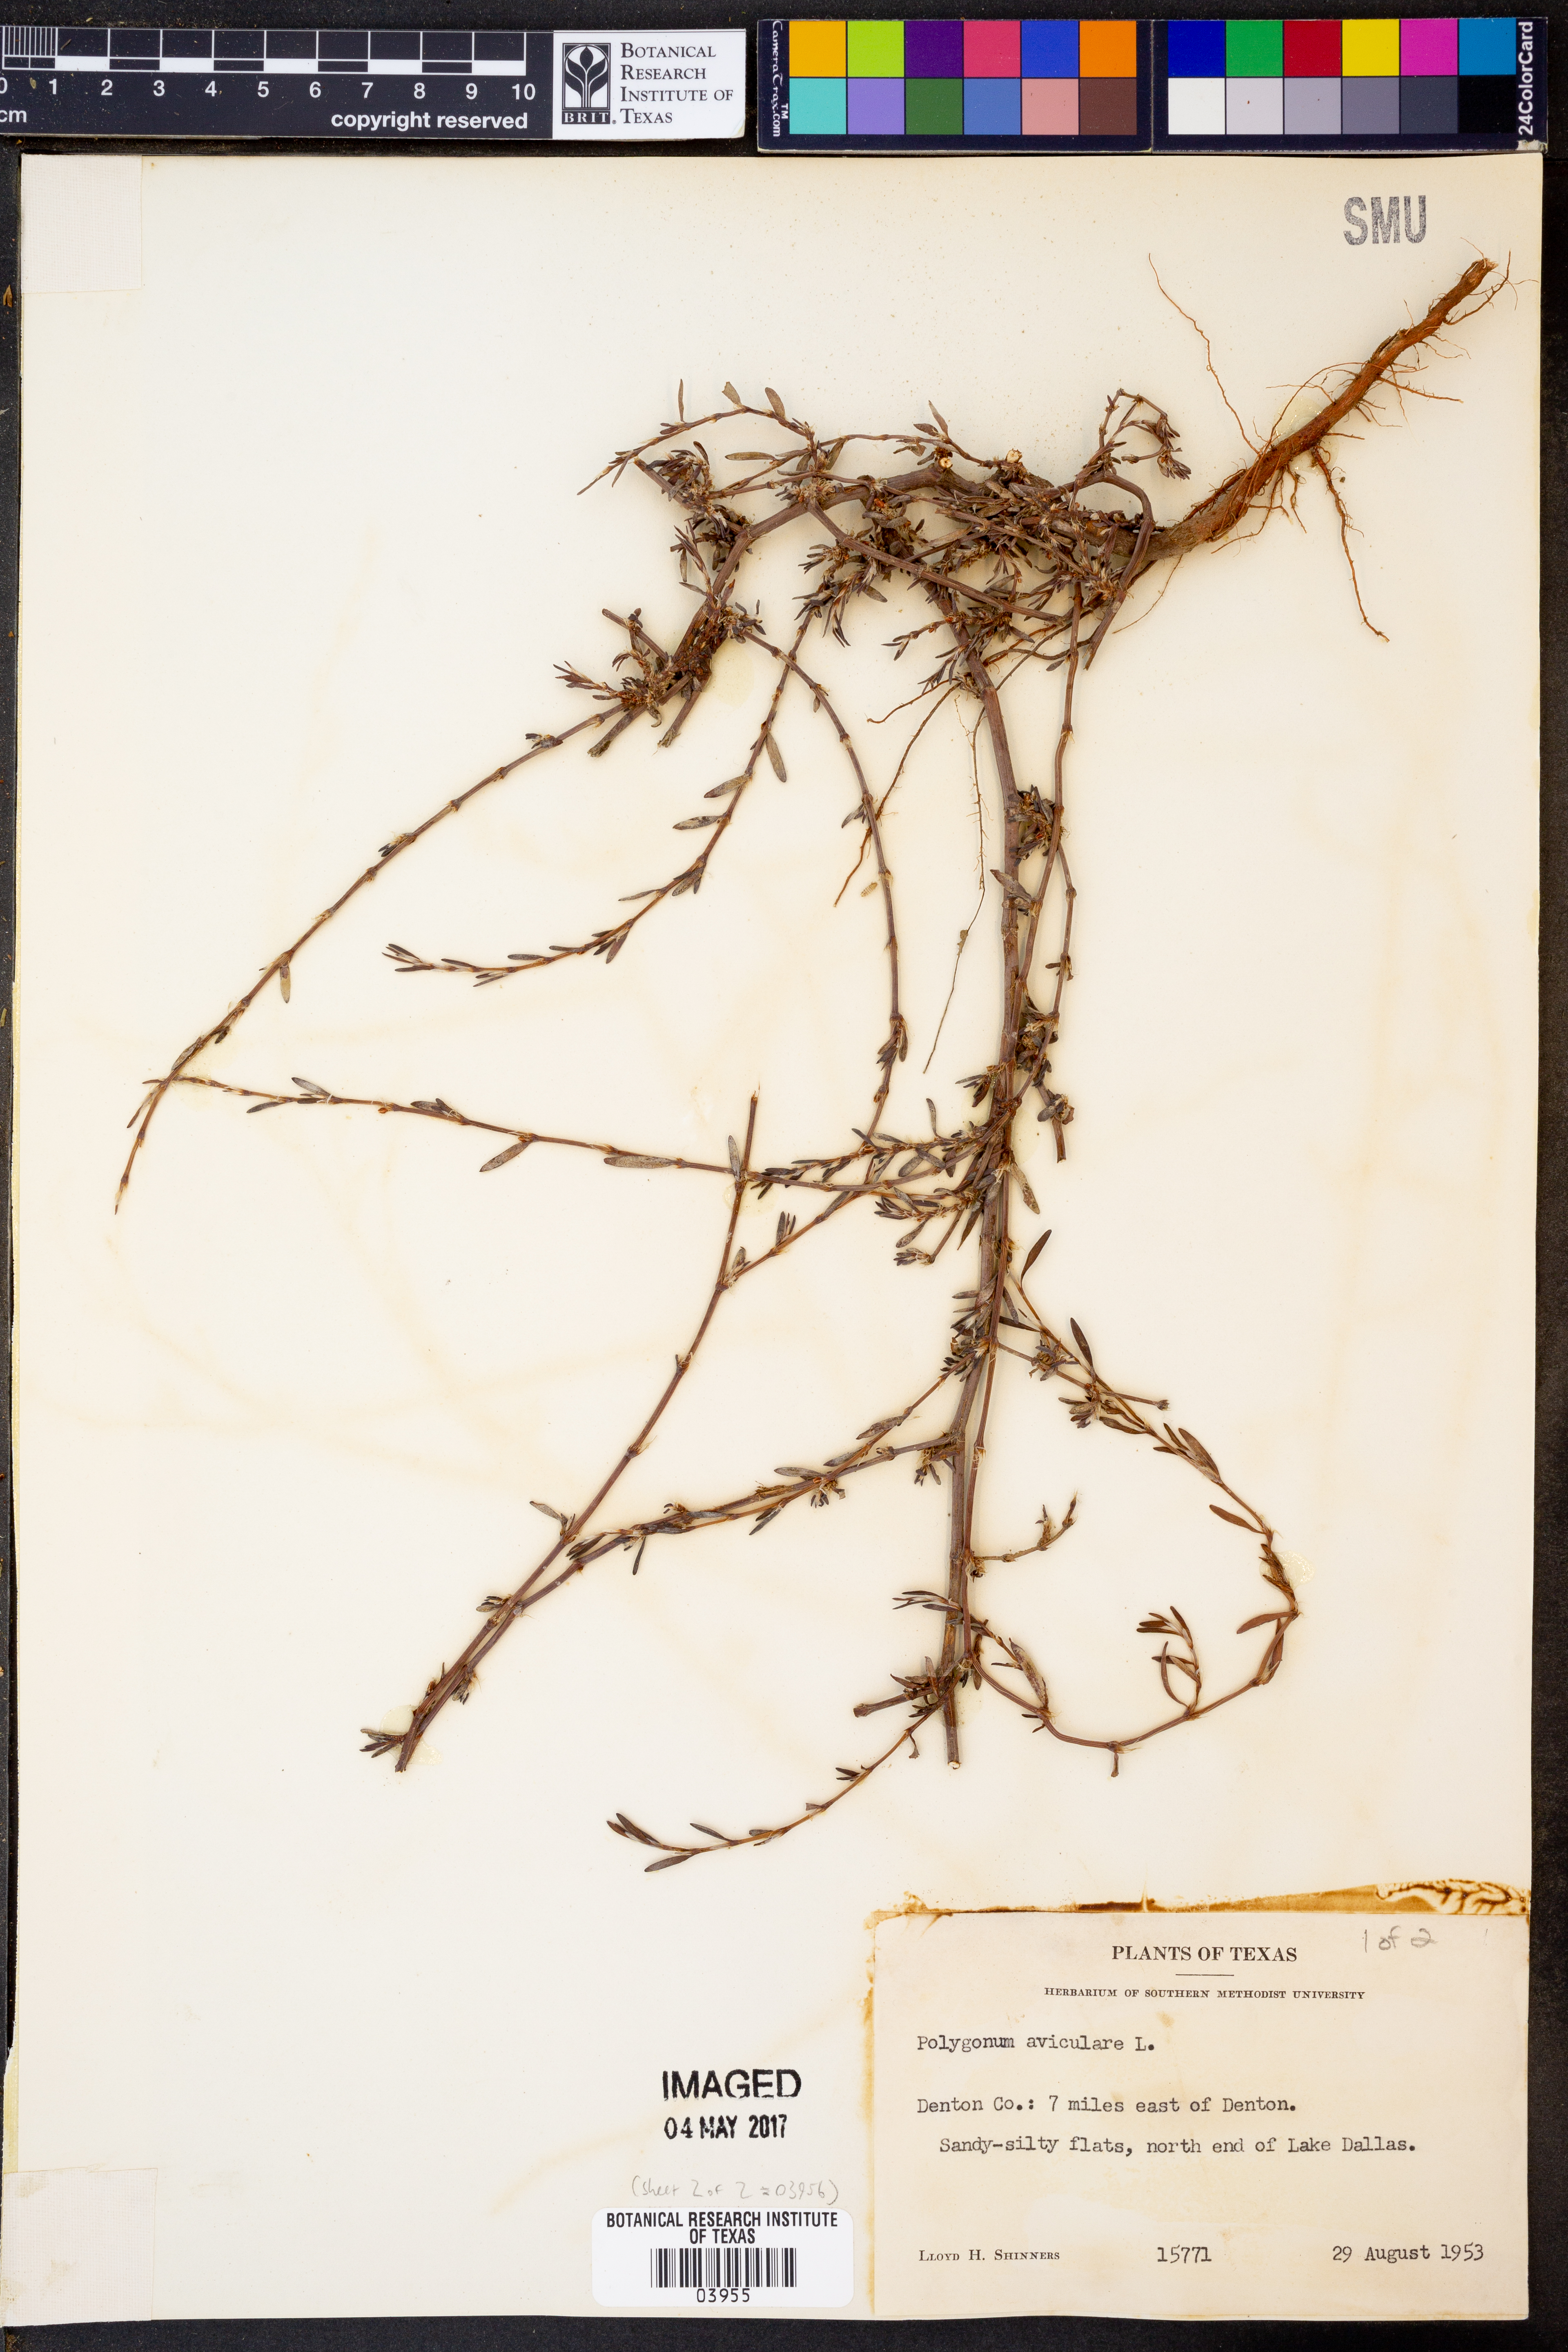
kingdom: Plantae
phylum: Tracheophyta
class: Magnoliopsida
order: Caryophyllales
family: Polygonaceae
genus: Polygonum
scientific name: Polygonum aviculare
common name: Prostrate knotweed
